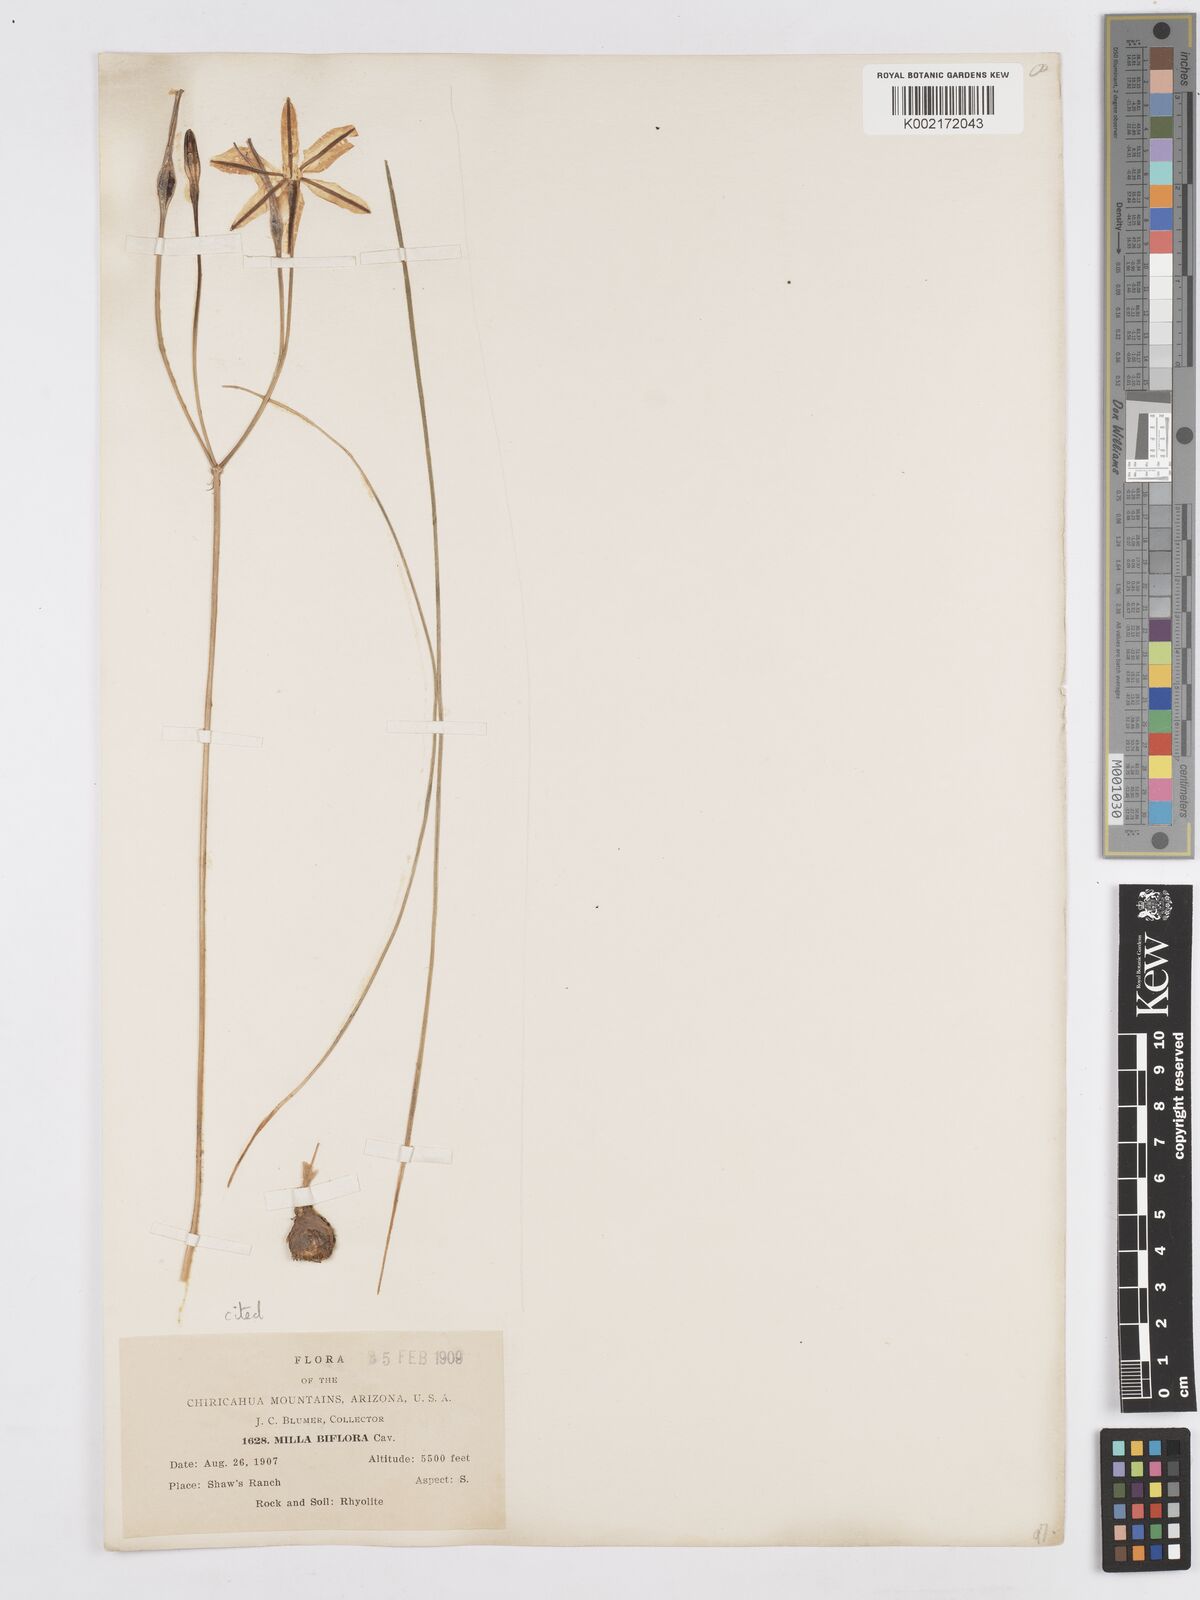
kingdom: Plantae
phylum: Tracheophyta
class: Liliopsida
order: Asparagales
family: Asparagaceae
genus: Milla
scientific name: Milla biflora
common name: Mexican-star
